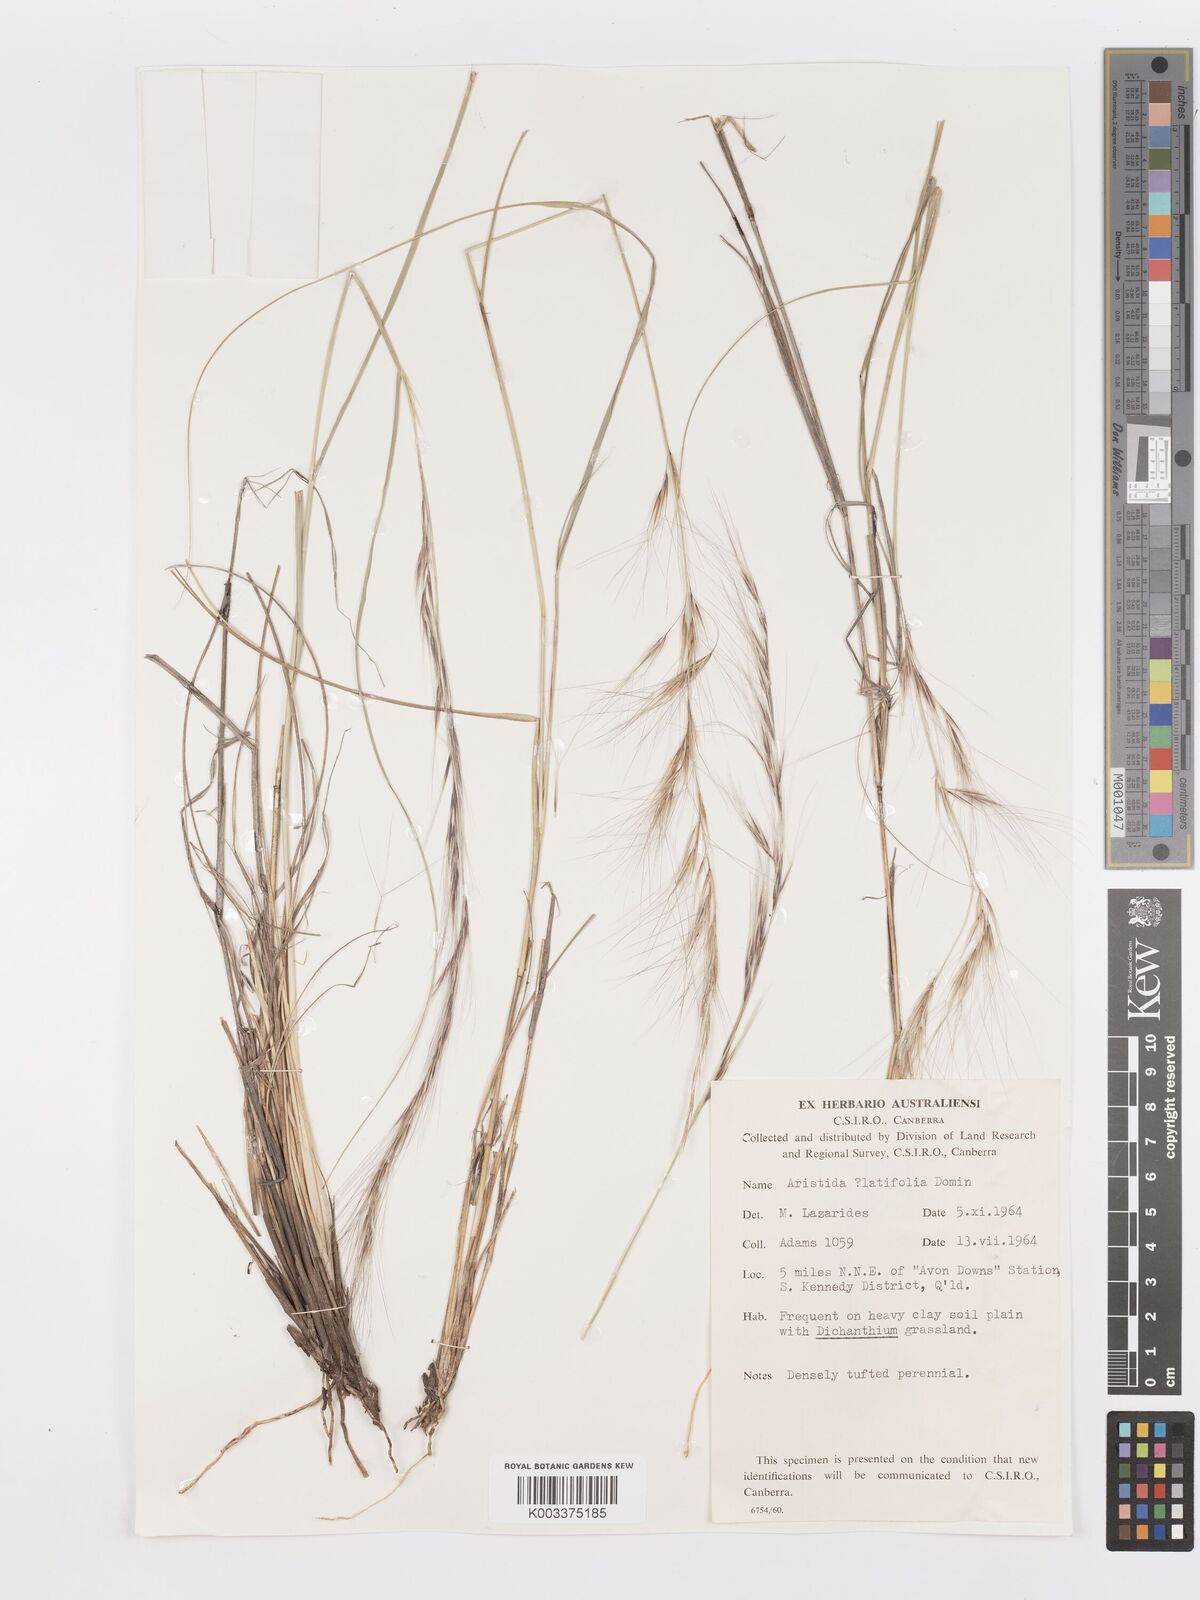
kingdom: Plantae
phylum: Tracheophyta
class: Liliopsida
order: Poales
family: Poaceae
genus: Aristida
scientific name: Aristida latifolia
